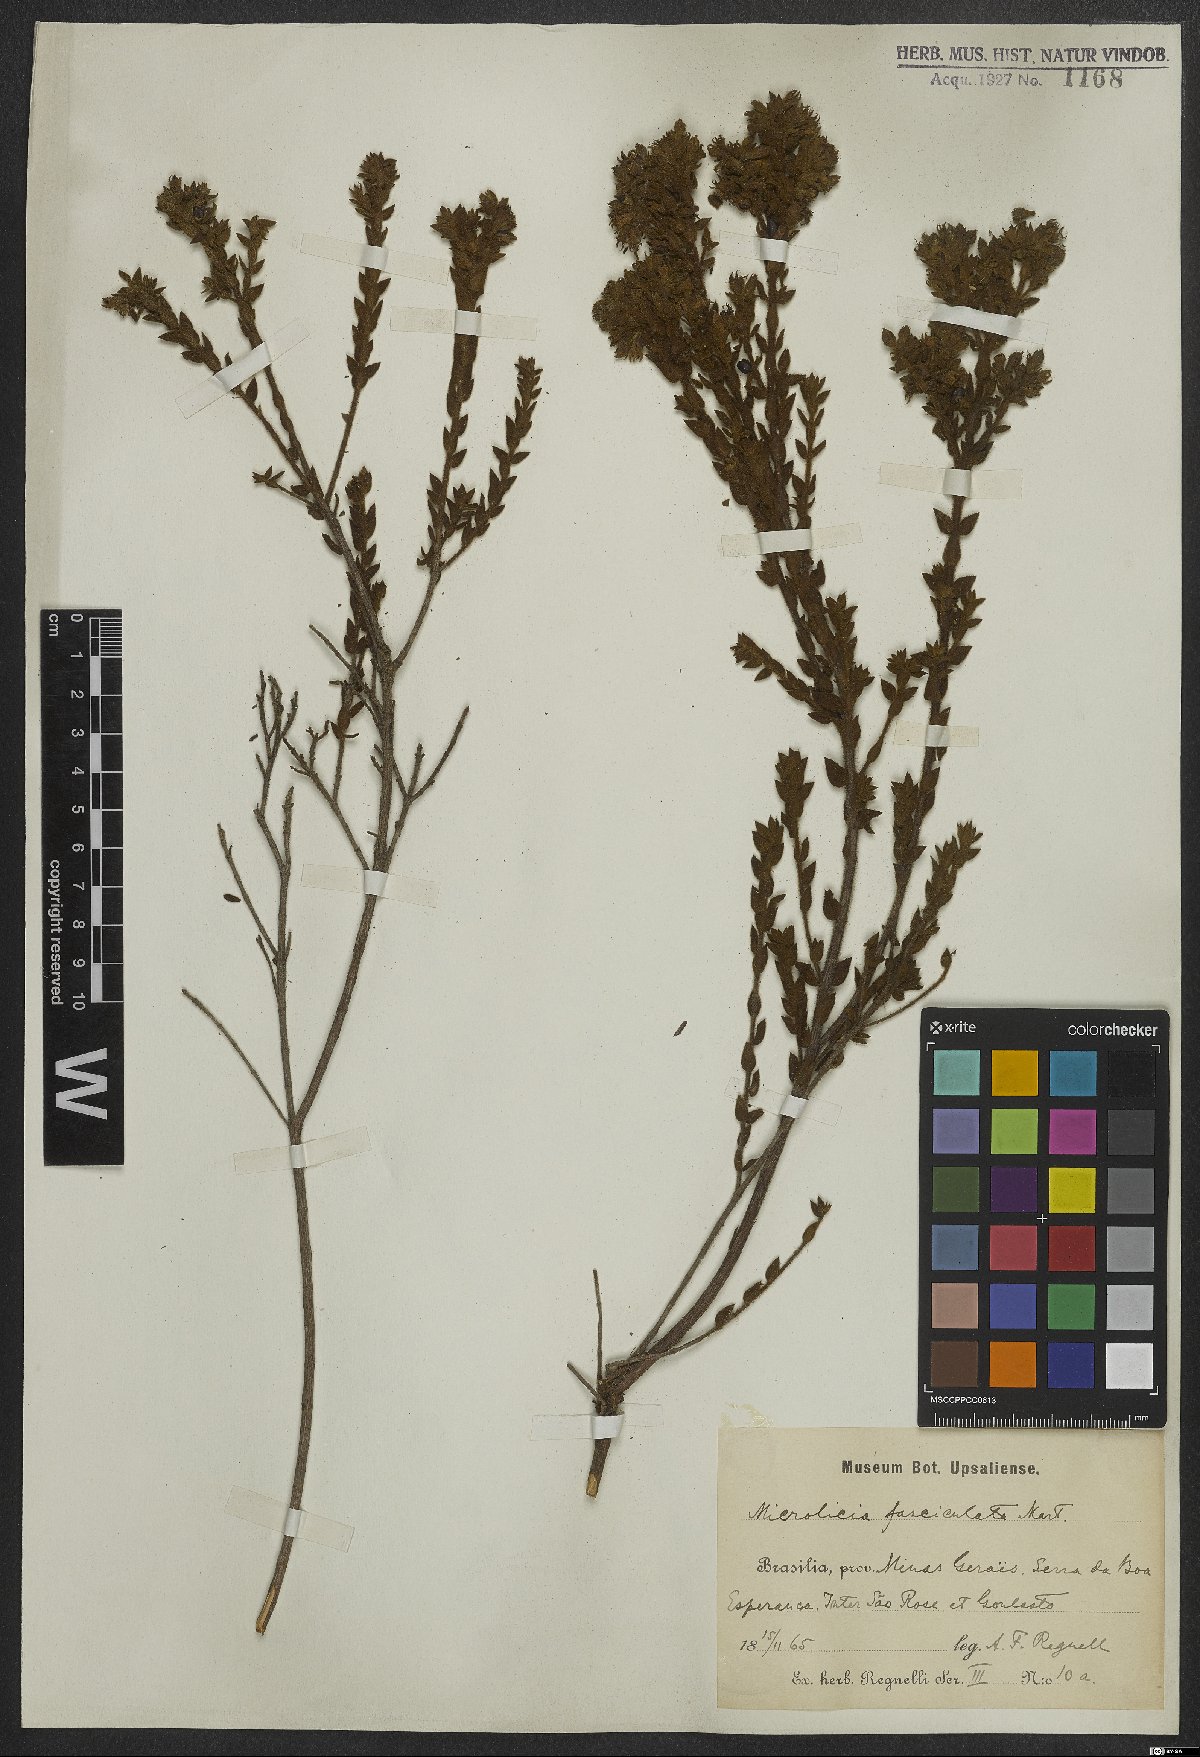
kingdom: Plantae
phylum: Tracheophyta
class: Magnoliopsida
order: Myrtales
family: Melastomataceae
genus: Microlicia
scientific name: Microlicia fasciculata
